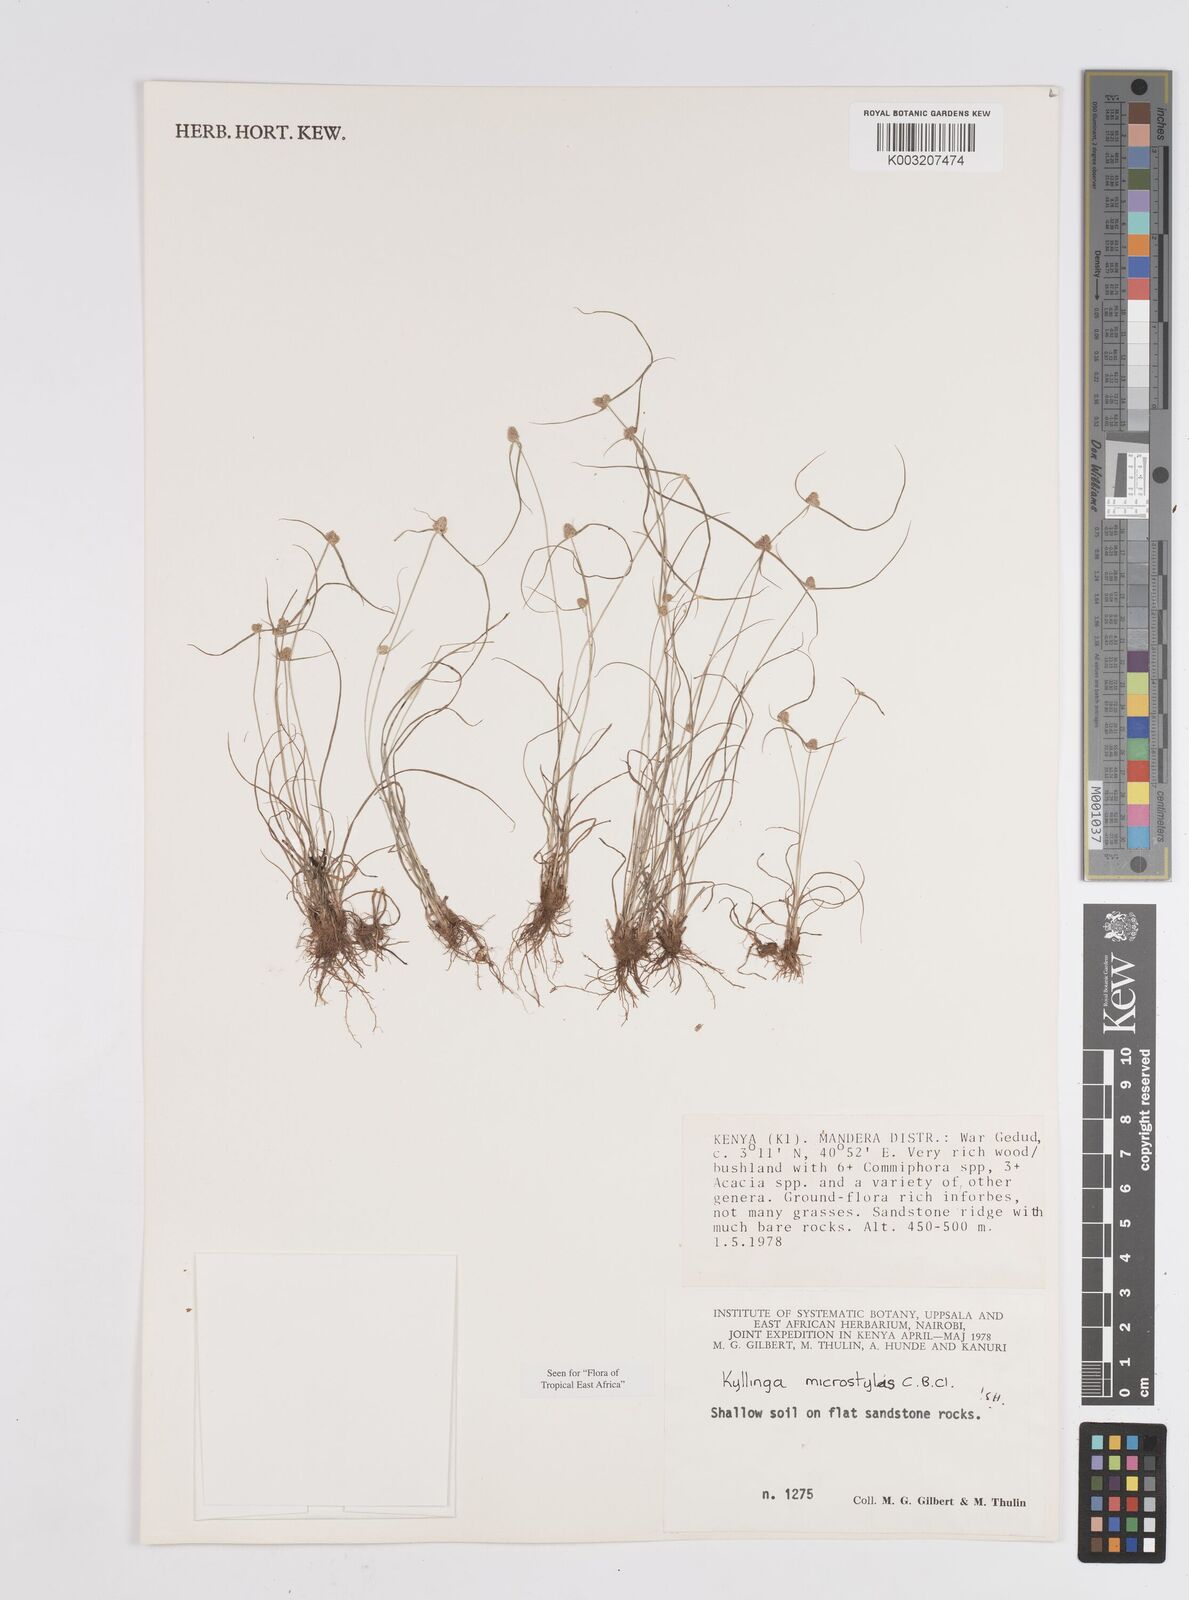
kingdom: Plantae
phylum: Tracheophyta
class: Liliopsida
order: Poales
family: Cyperaceae
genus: Cyperus
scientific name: Cyperus microstylus
